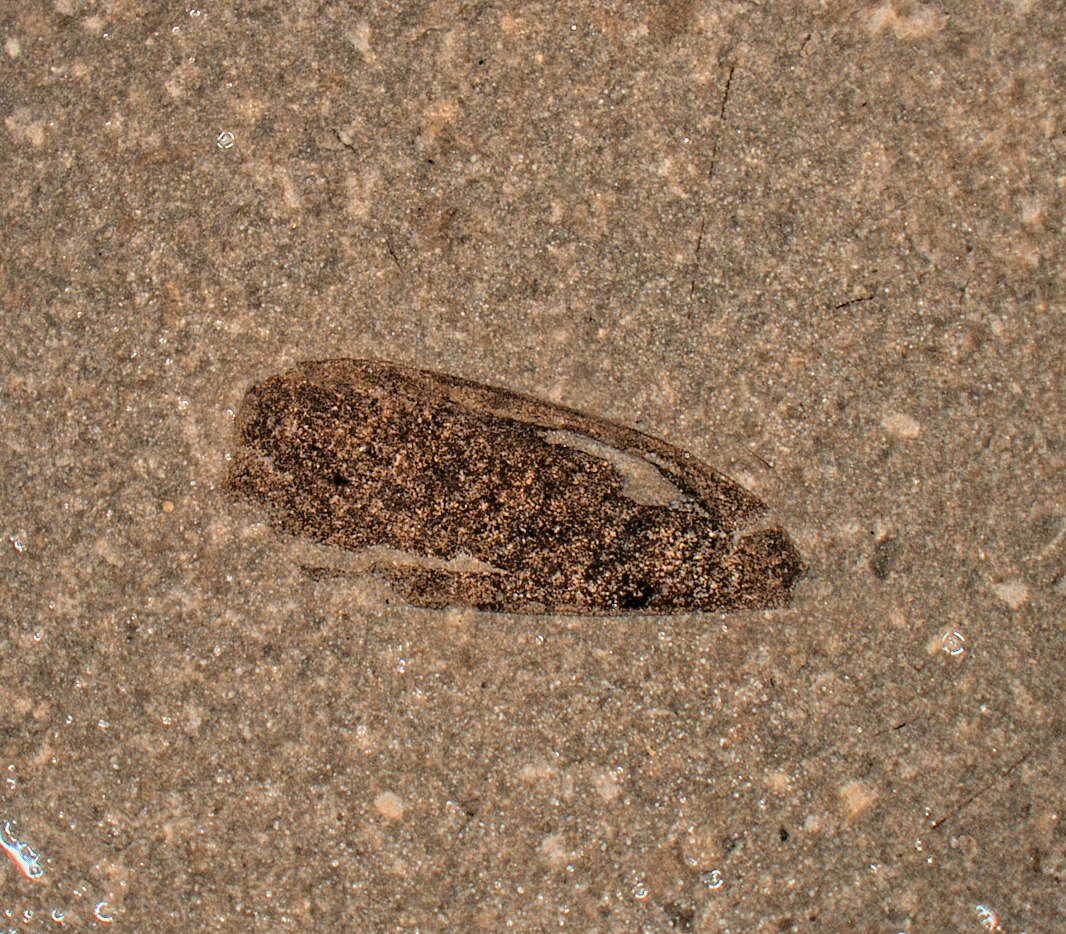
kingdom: Animalia
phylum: Arthropoda
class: Insecta
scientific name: Insecta
